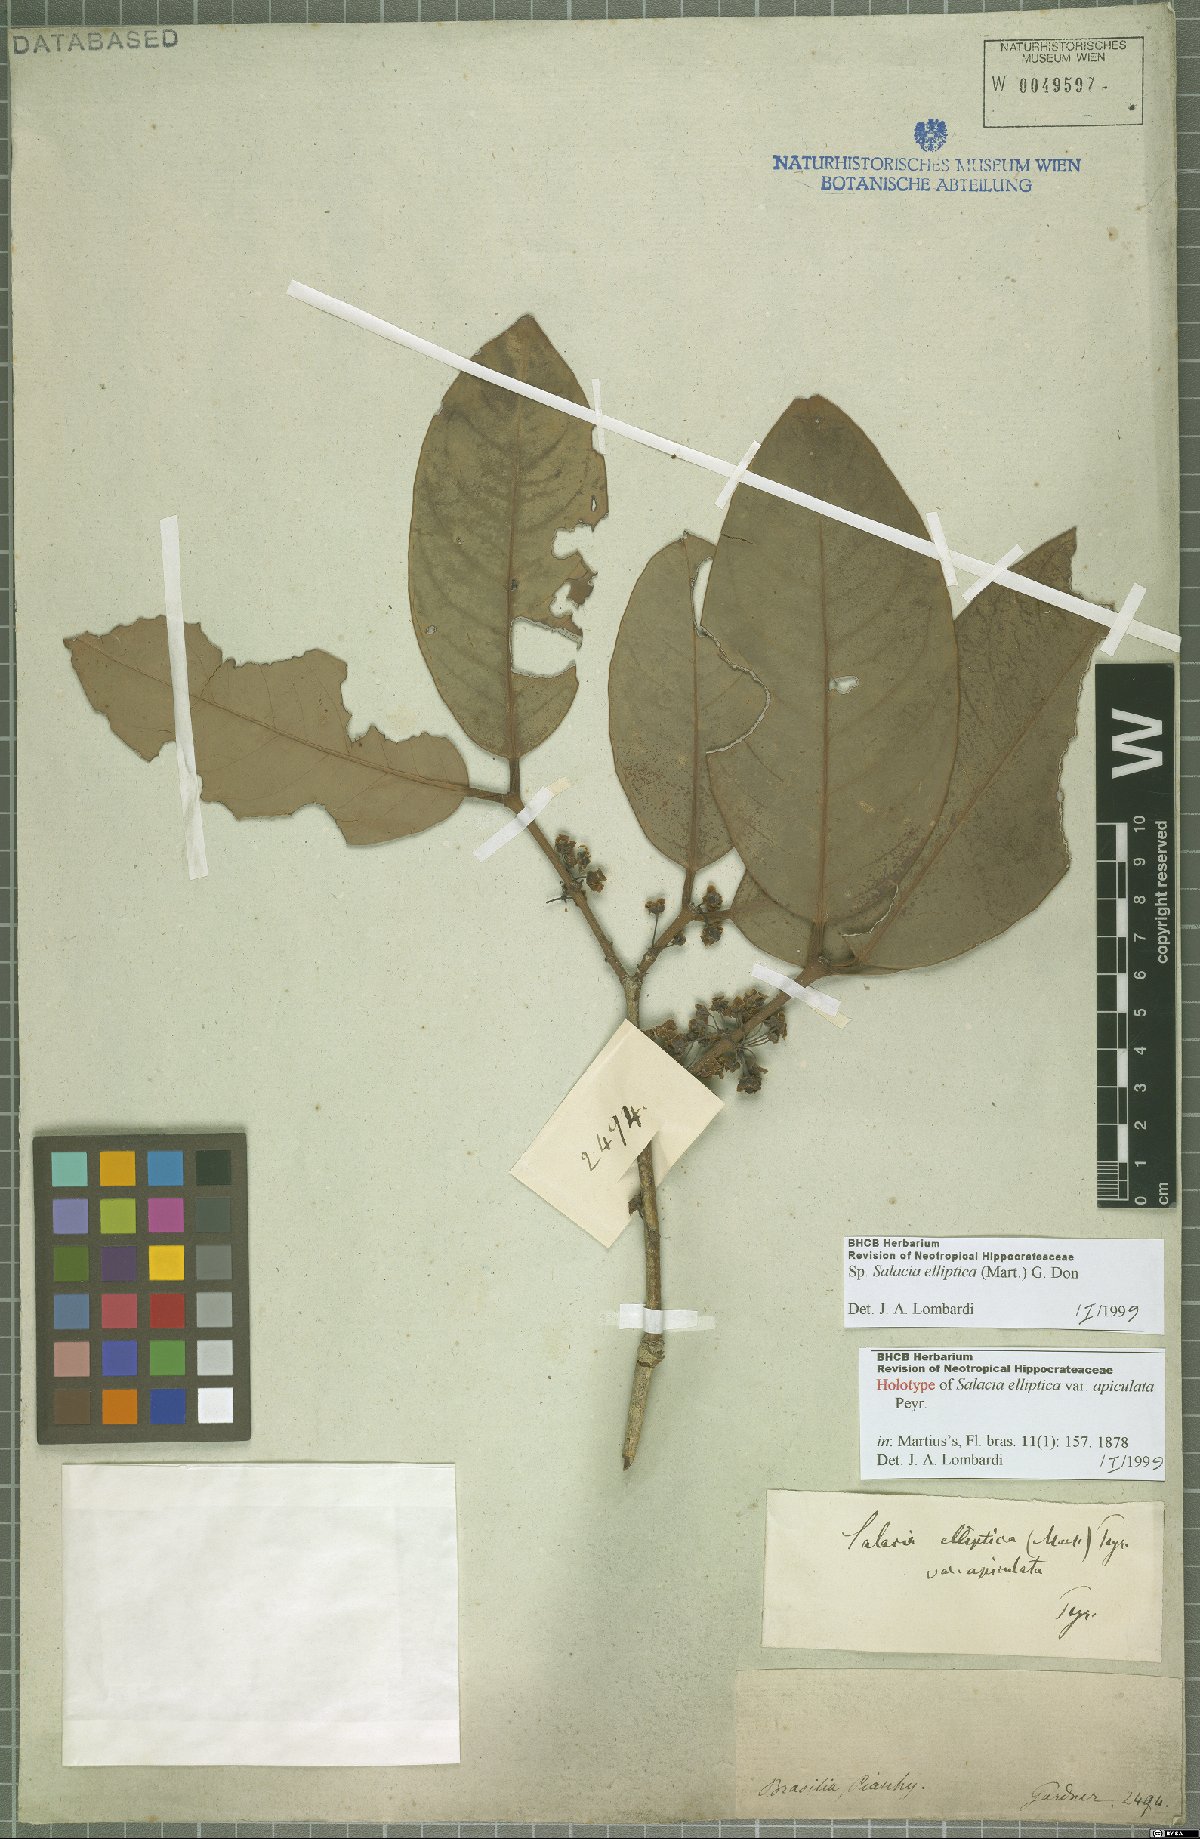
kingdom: Plantae
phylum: Tracheophyta
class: Magnoliopsida
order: Celastrales
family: Celastraceae
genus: Salacia
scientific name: Salacia elliptica
